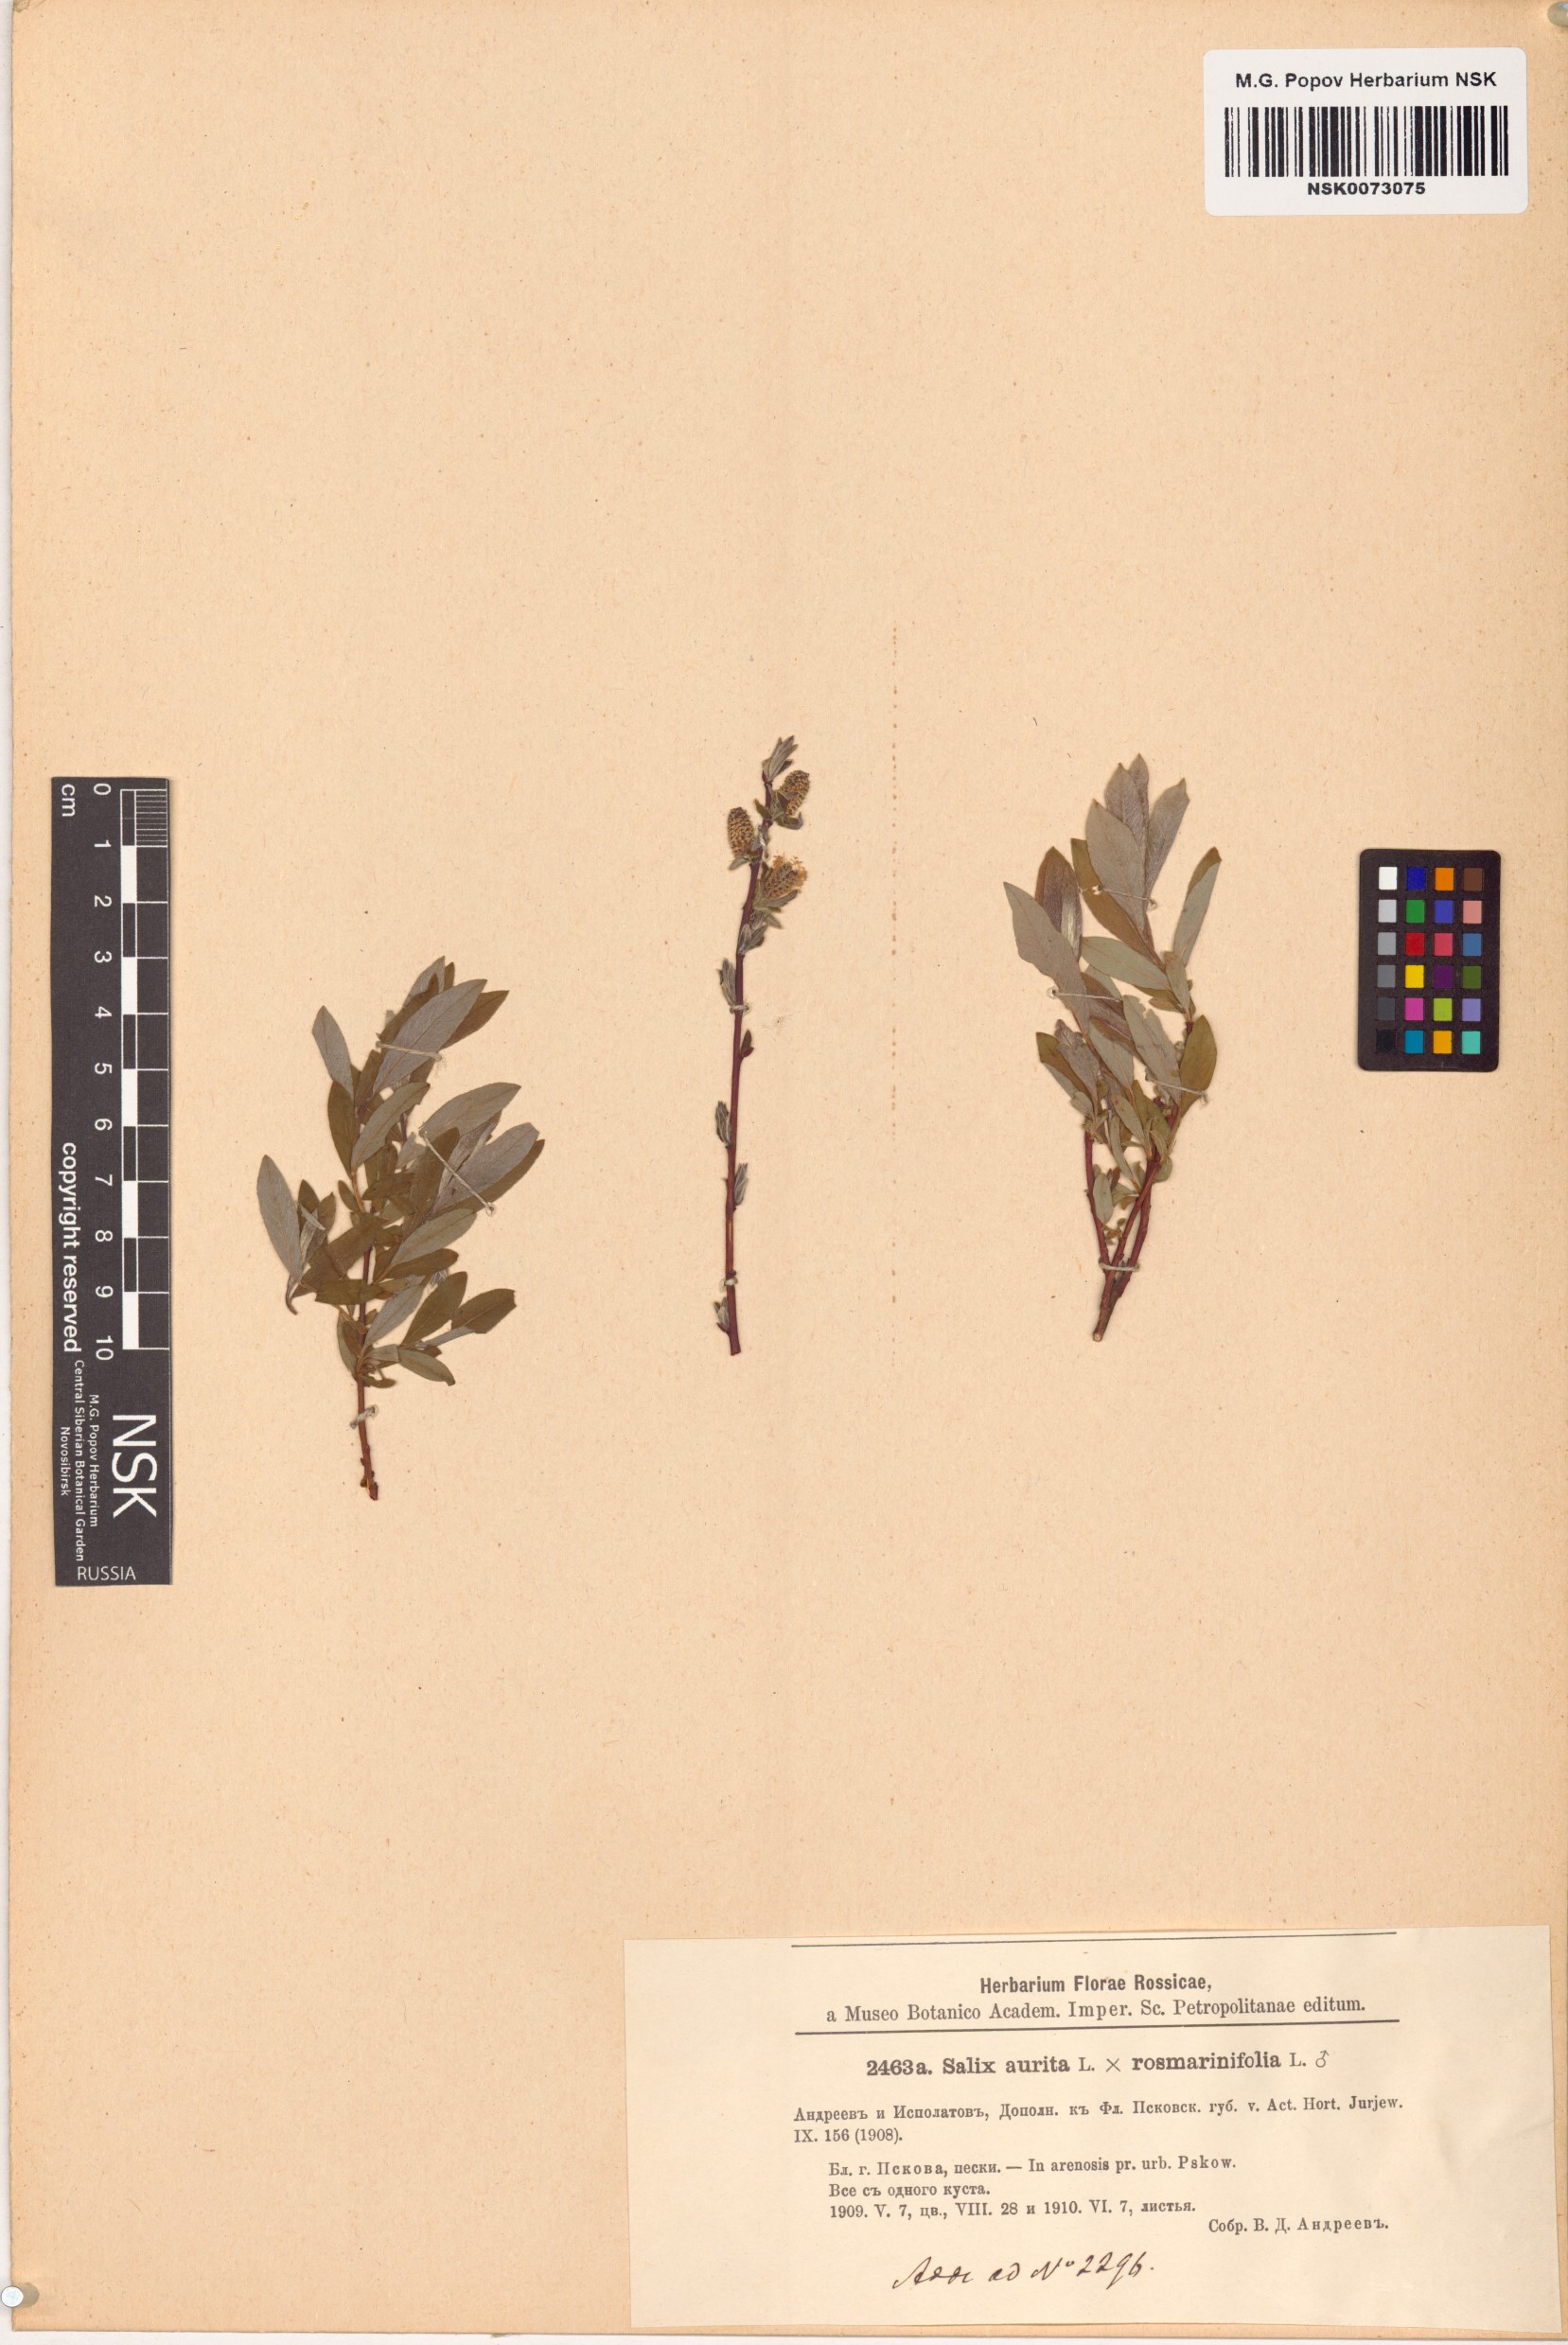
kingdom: Plantae
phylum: Tracheophyta
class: Magnoliopsida
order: Malpighiales
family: Salicaceae
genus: Salix
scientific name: Salix
